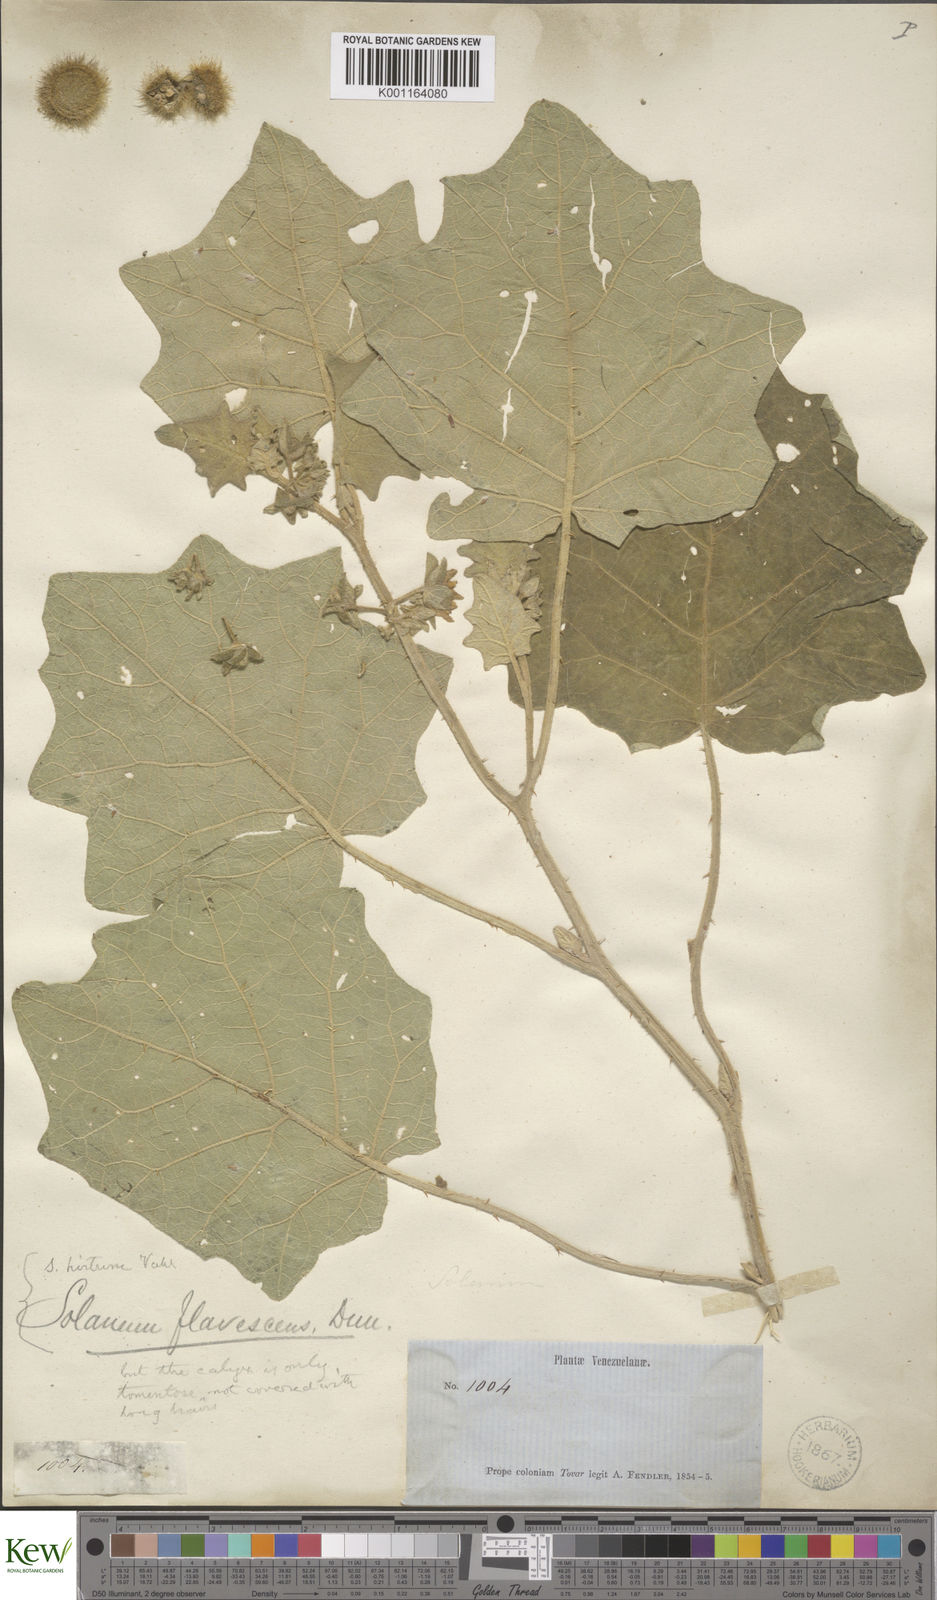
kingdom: Plantae
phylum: Tracheophyta
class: Magnoliopsida
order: Solanales
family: Solanaceae
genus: Solanum
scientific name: Solanum hirtum
